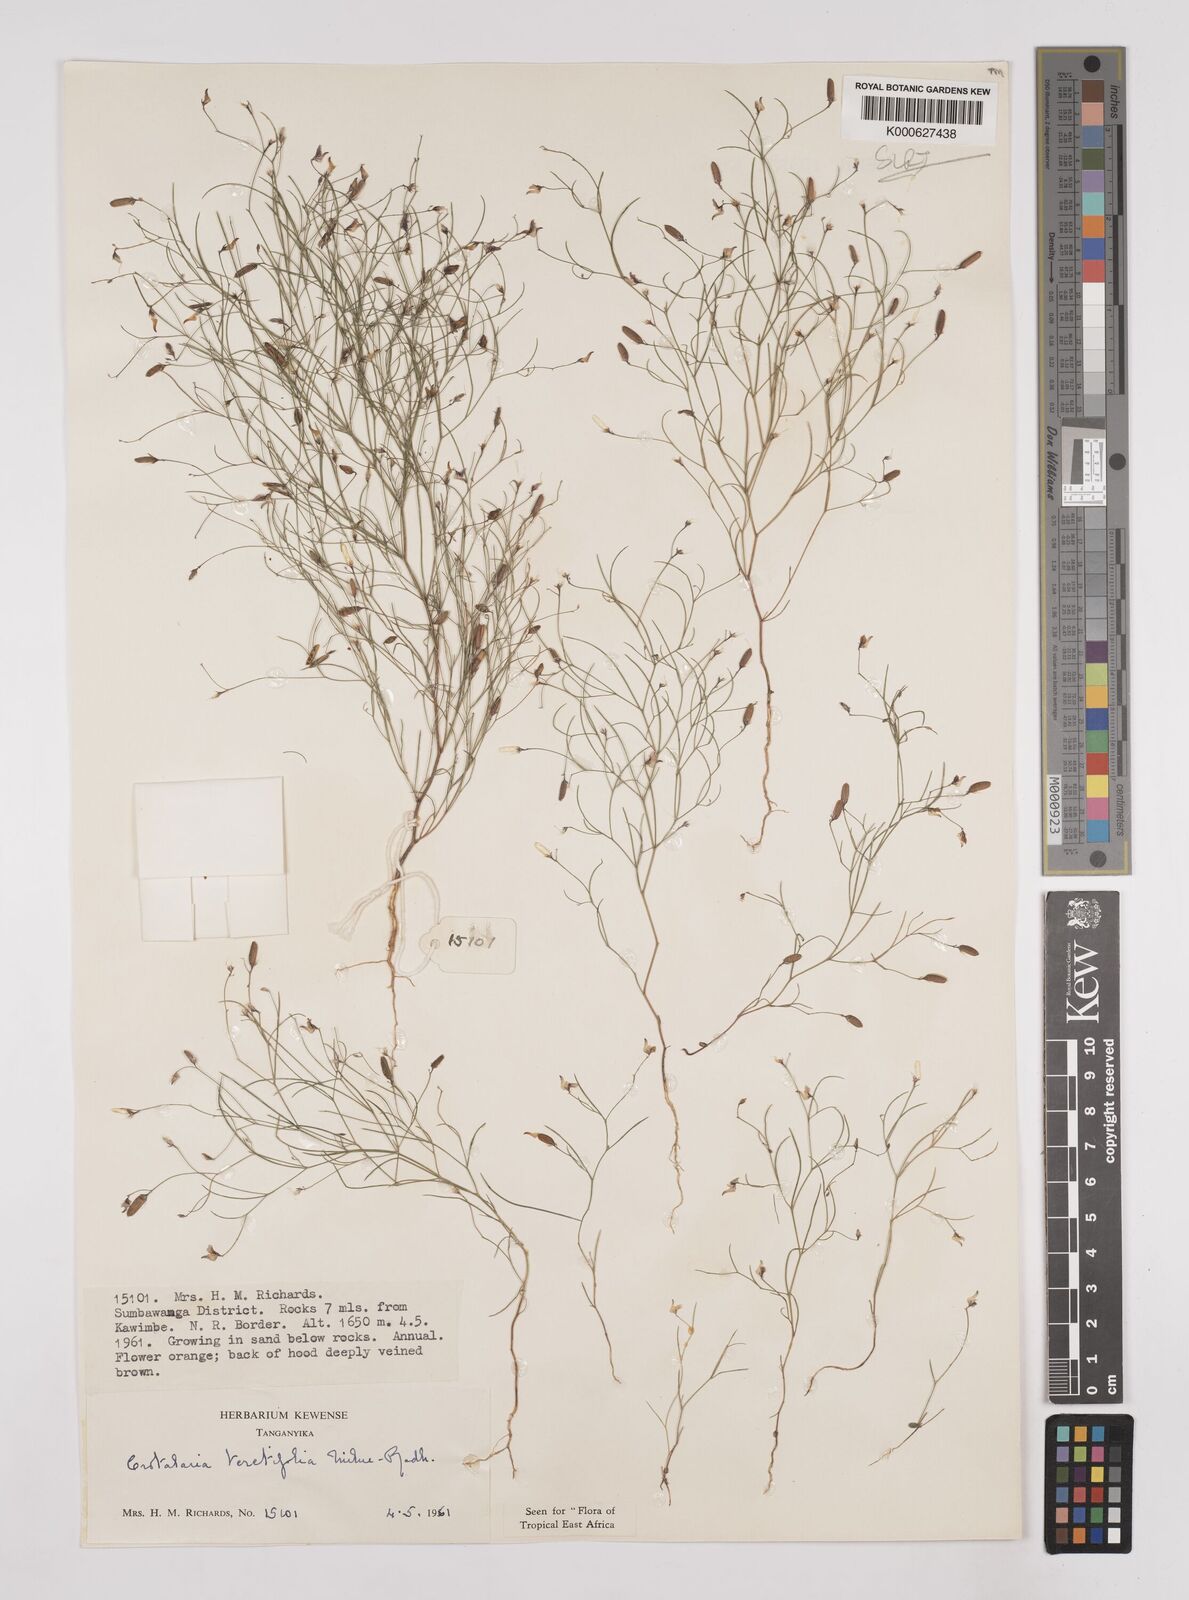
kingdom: Plantae
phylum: Tracheophyta
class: Magnoliopsida
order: Fabales
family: Fabaceae
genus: Crotalaria
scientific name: Crotalaria teretifolia
